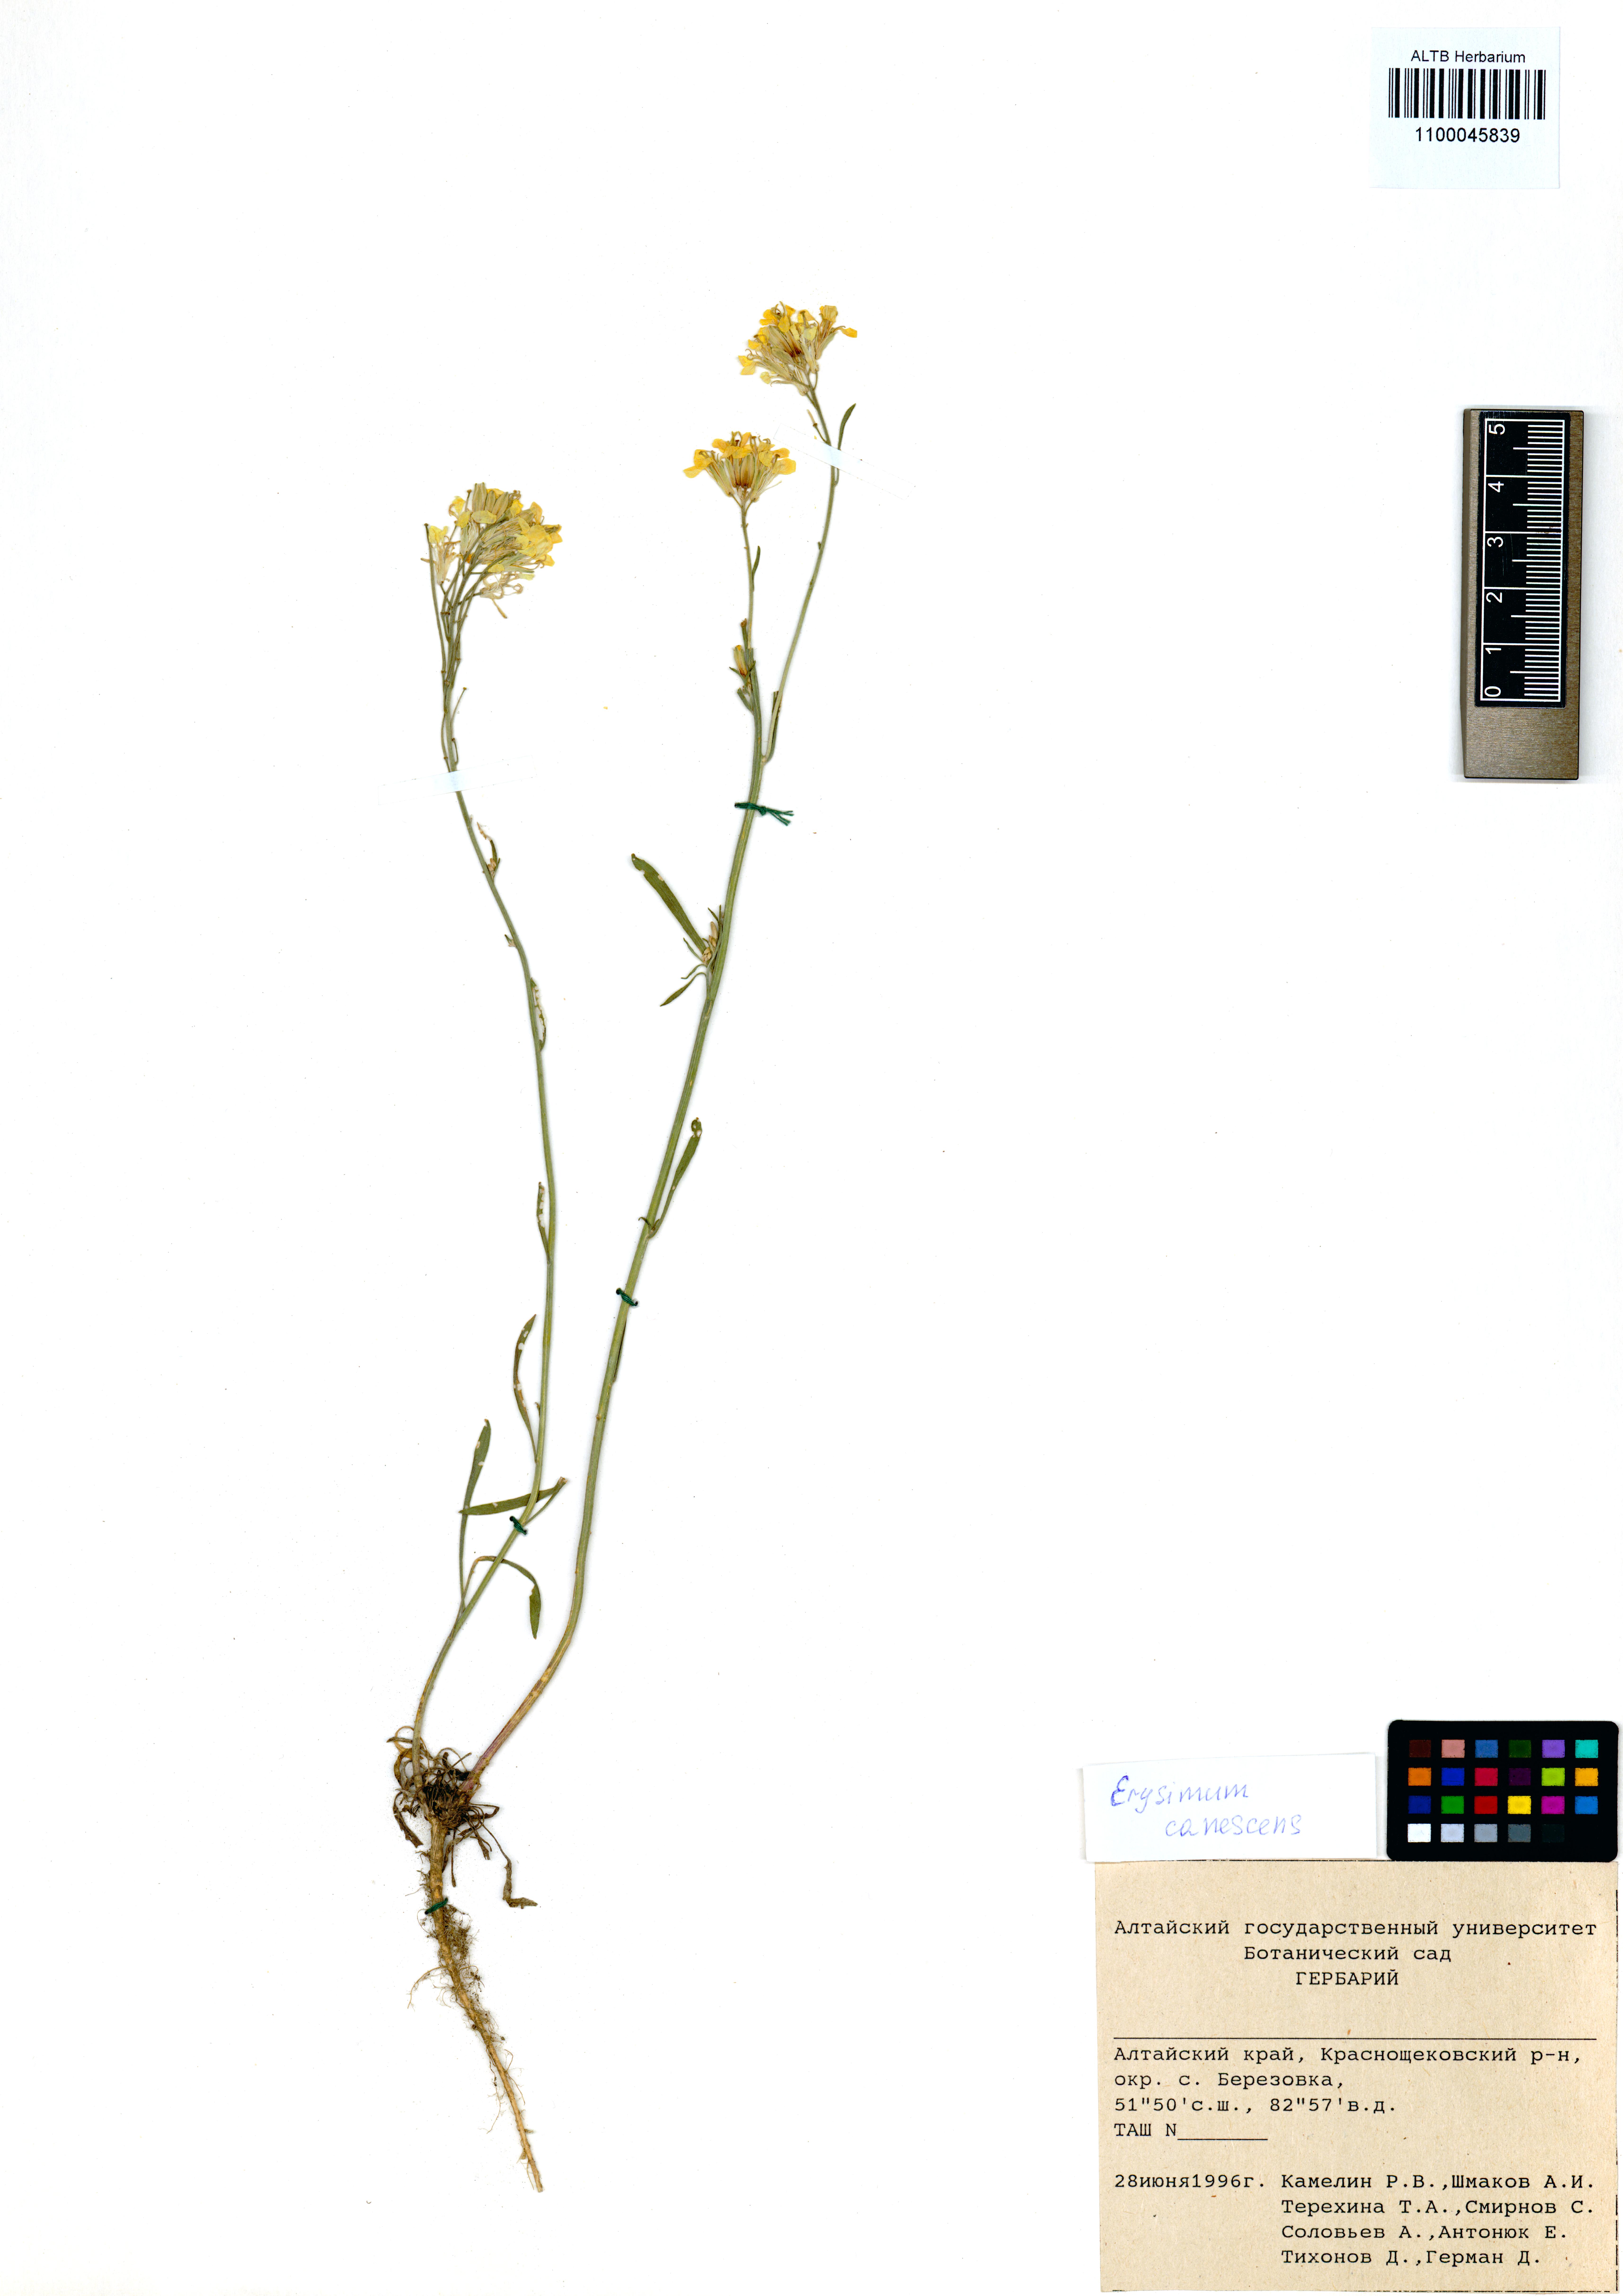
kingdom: Plantae
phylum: Tracheophyta
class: Magnoliopsida
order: Brassicales
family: Brassicaceae
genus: Erysimum
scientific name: Erysimum canescens
